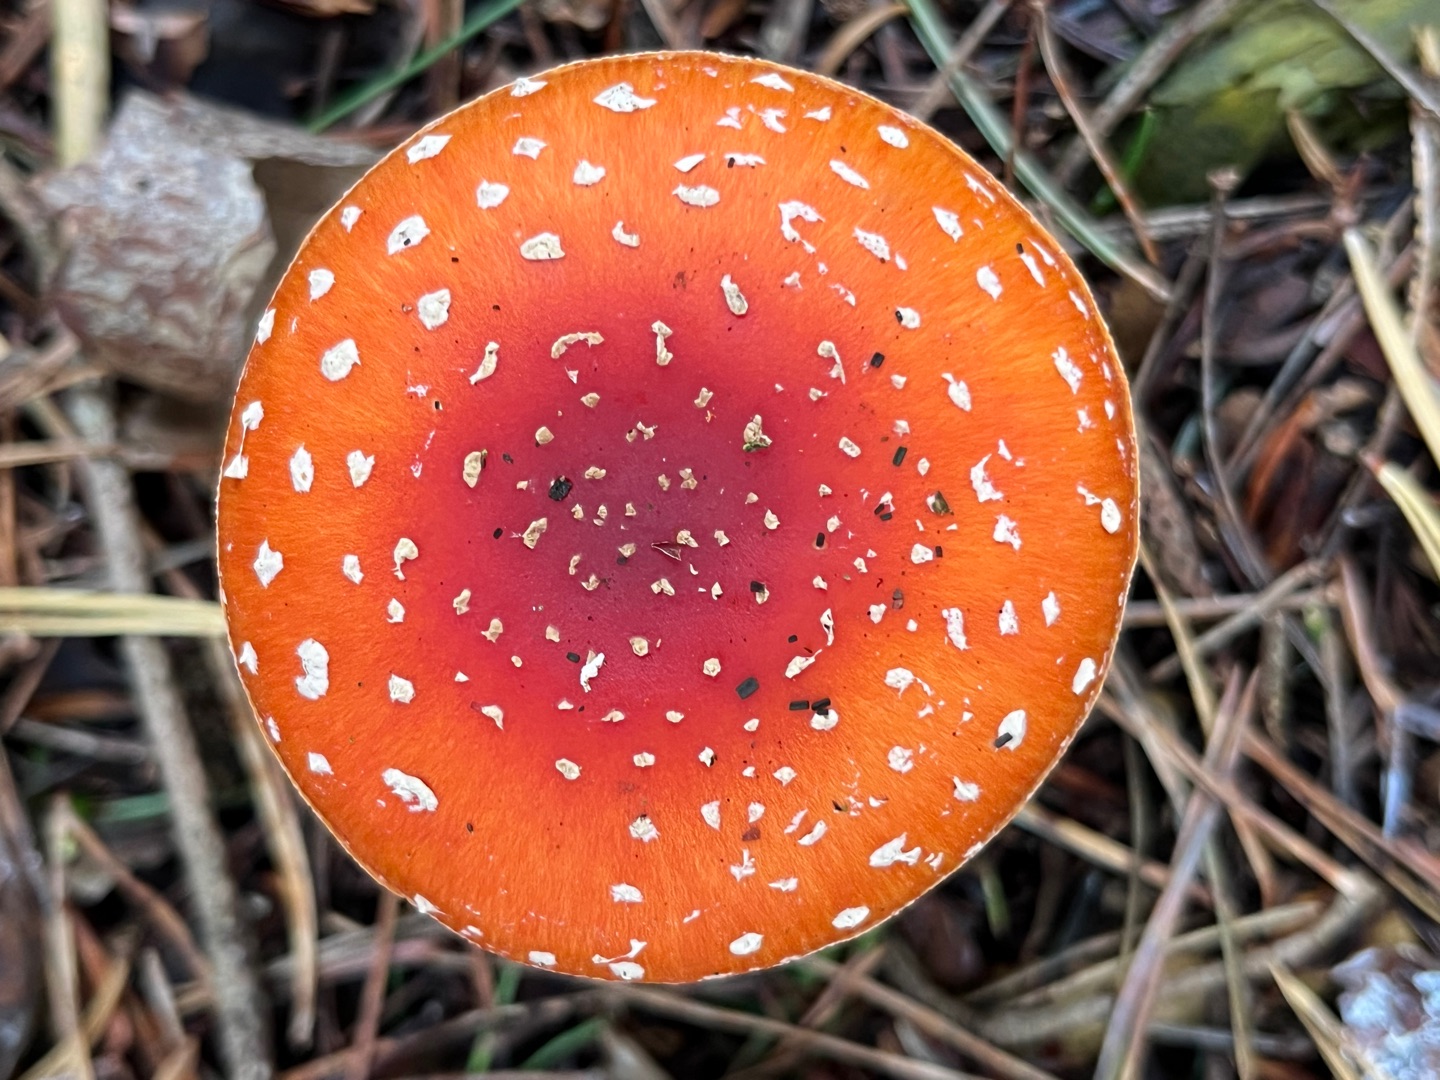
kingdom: Fungi
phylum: Basidiomycota
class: Agaricomycetes
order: Agaricales
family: Amanitaceae
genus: Amanita
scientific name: Amanita muscaria
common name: Rød fluesvamp
